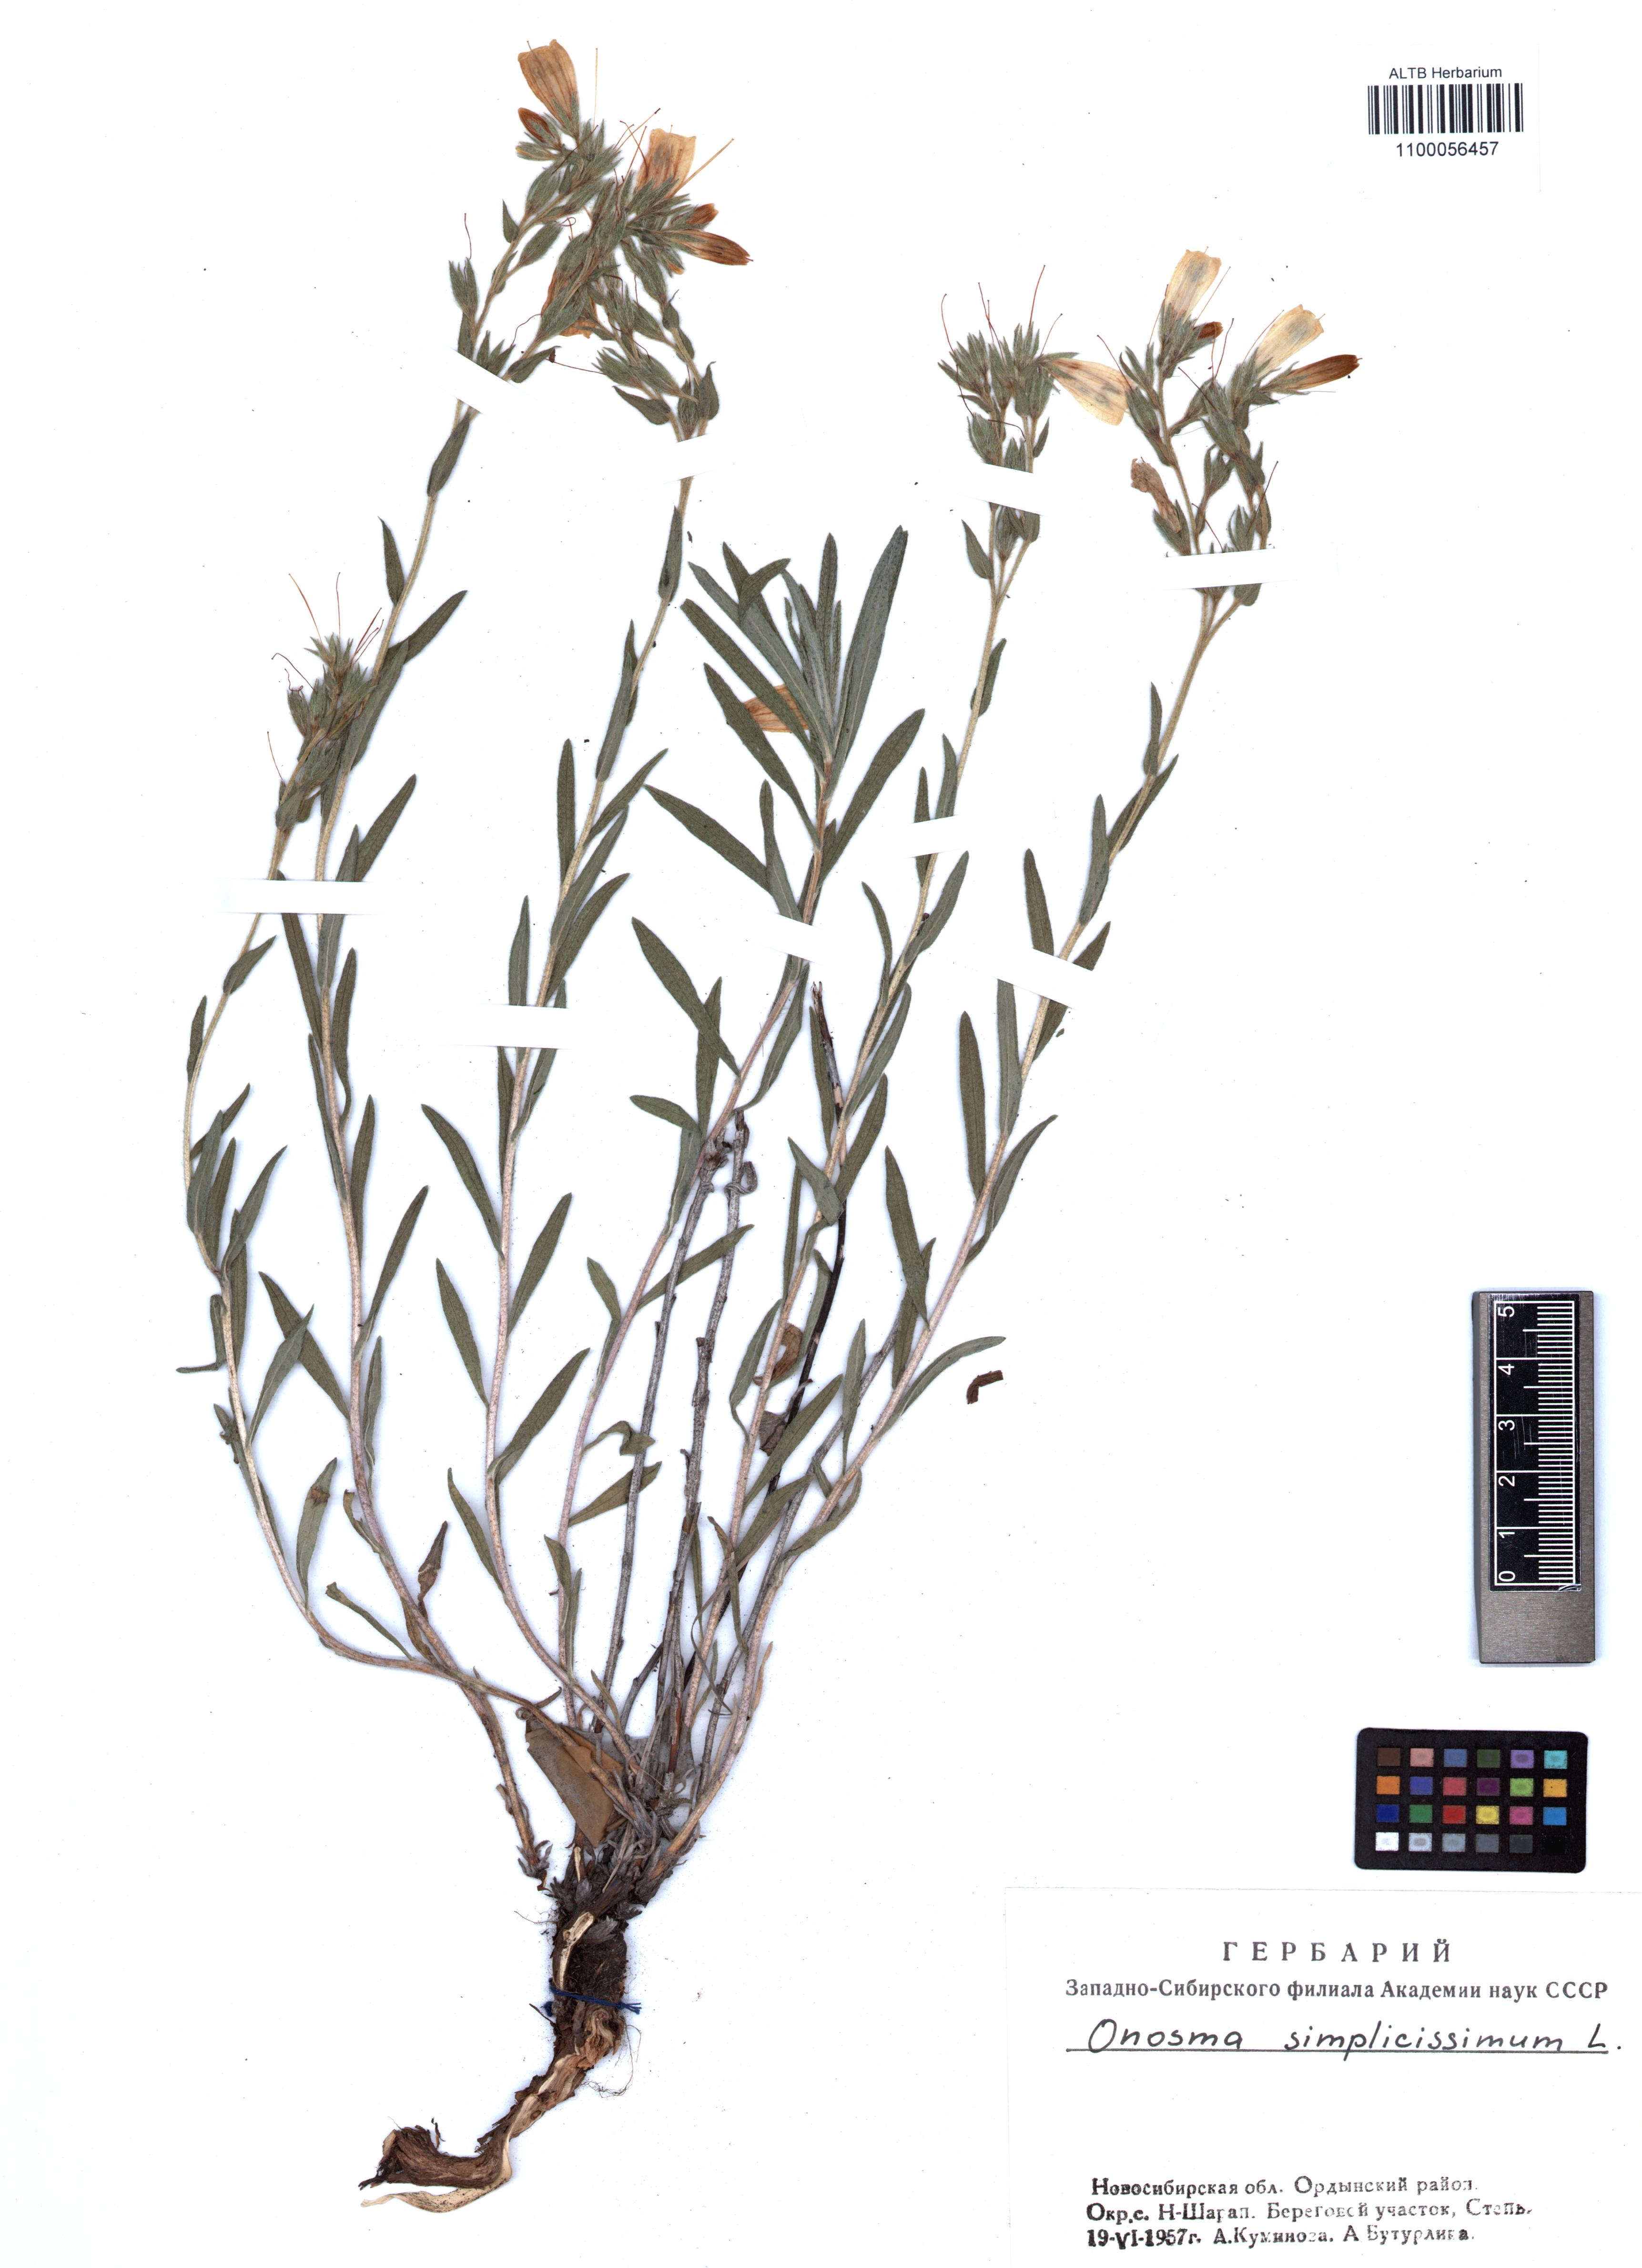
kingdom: Plantae
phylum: Tracheophyta
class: Magnoliopsida
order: Boraginales
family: Boraginaceae
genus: Onosma
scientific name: Onosma simplicissima
